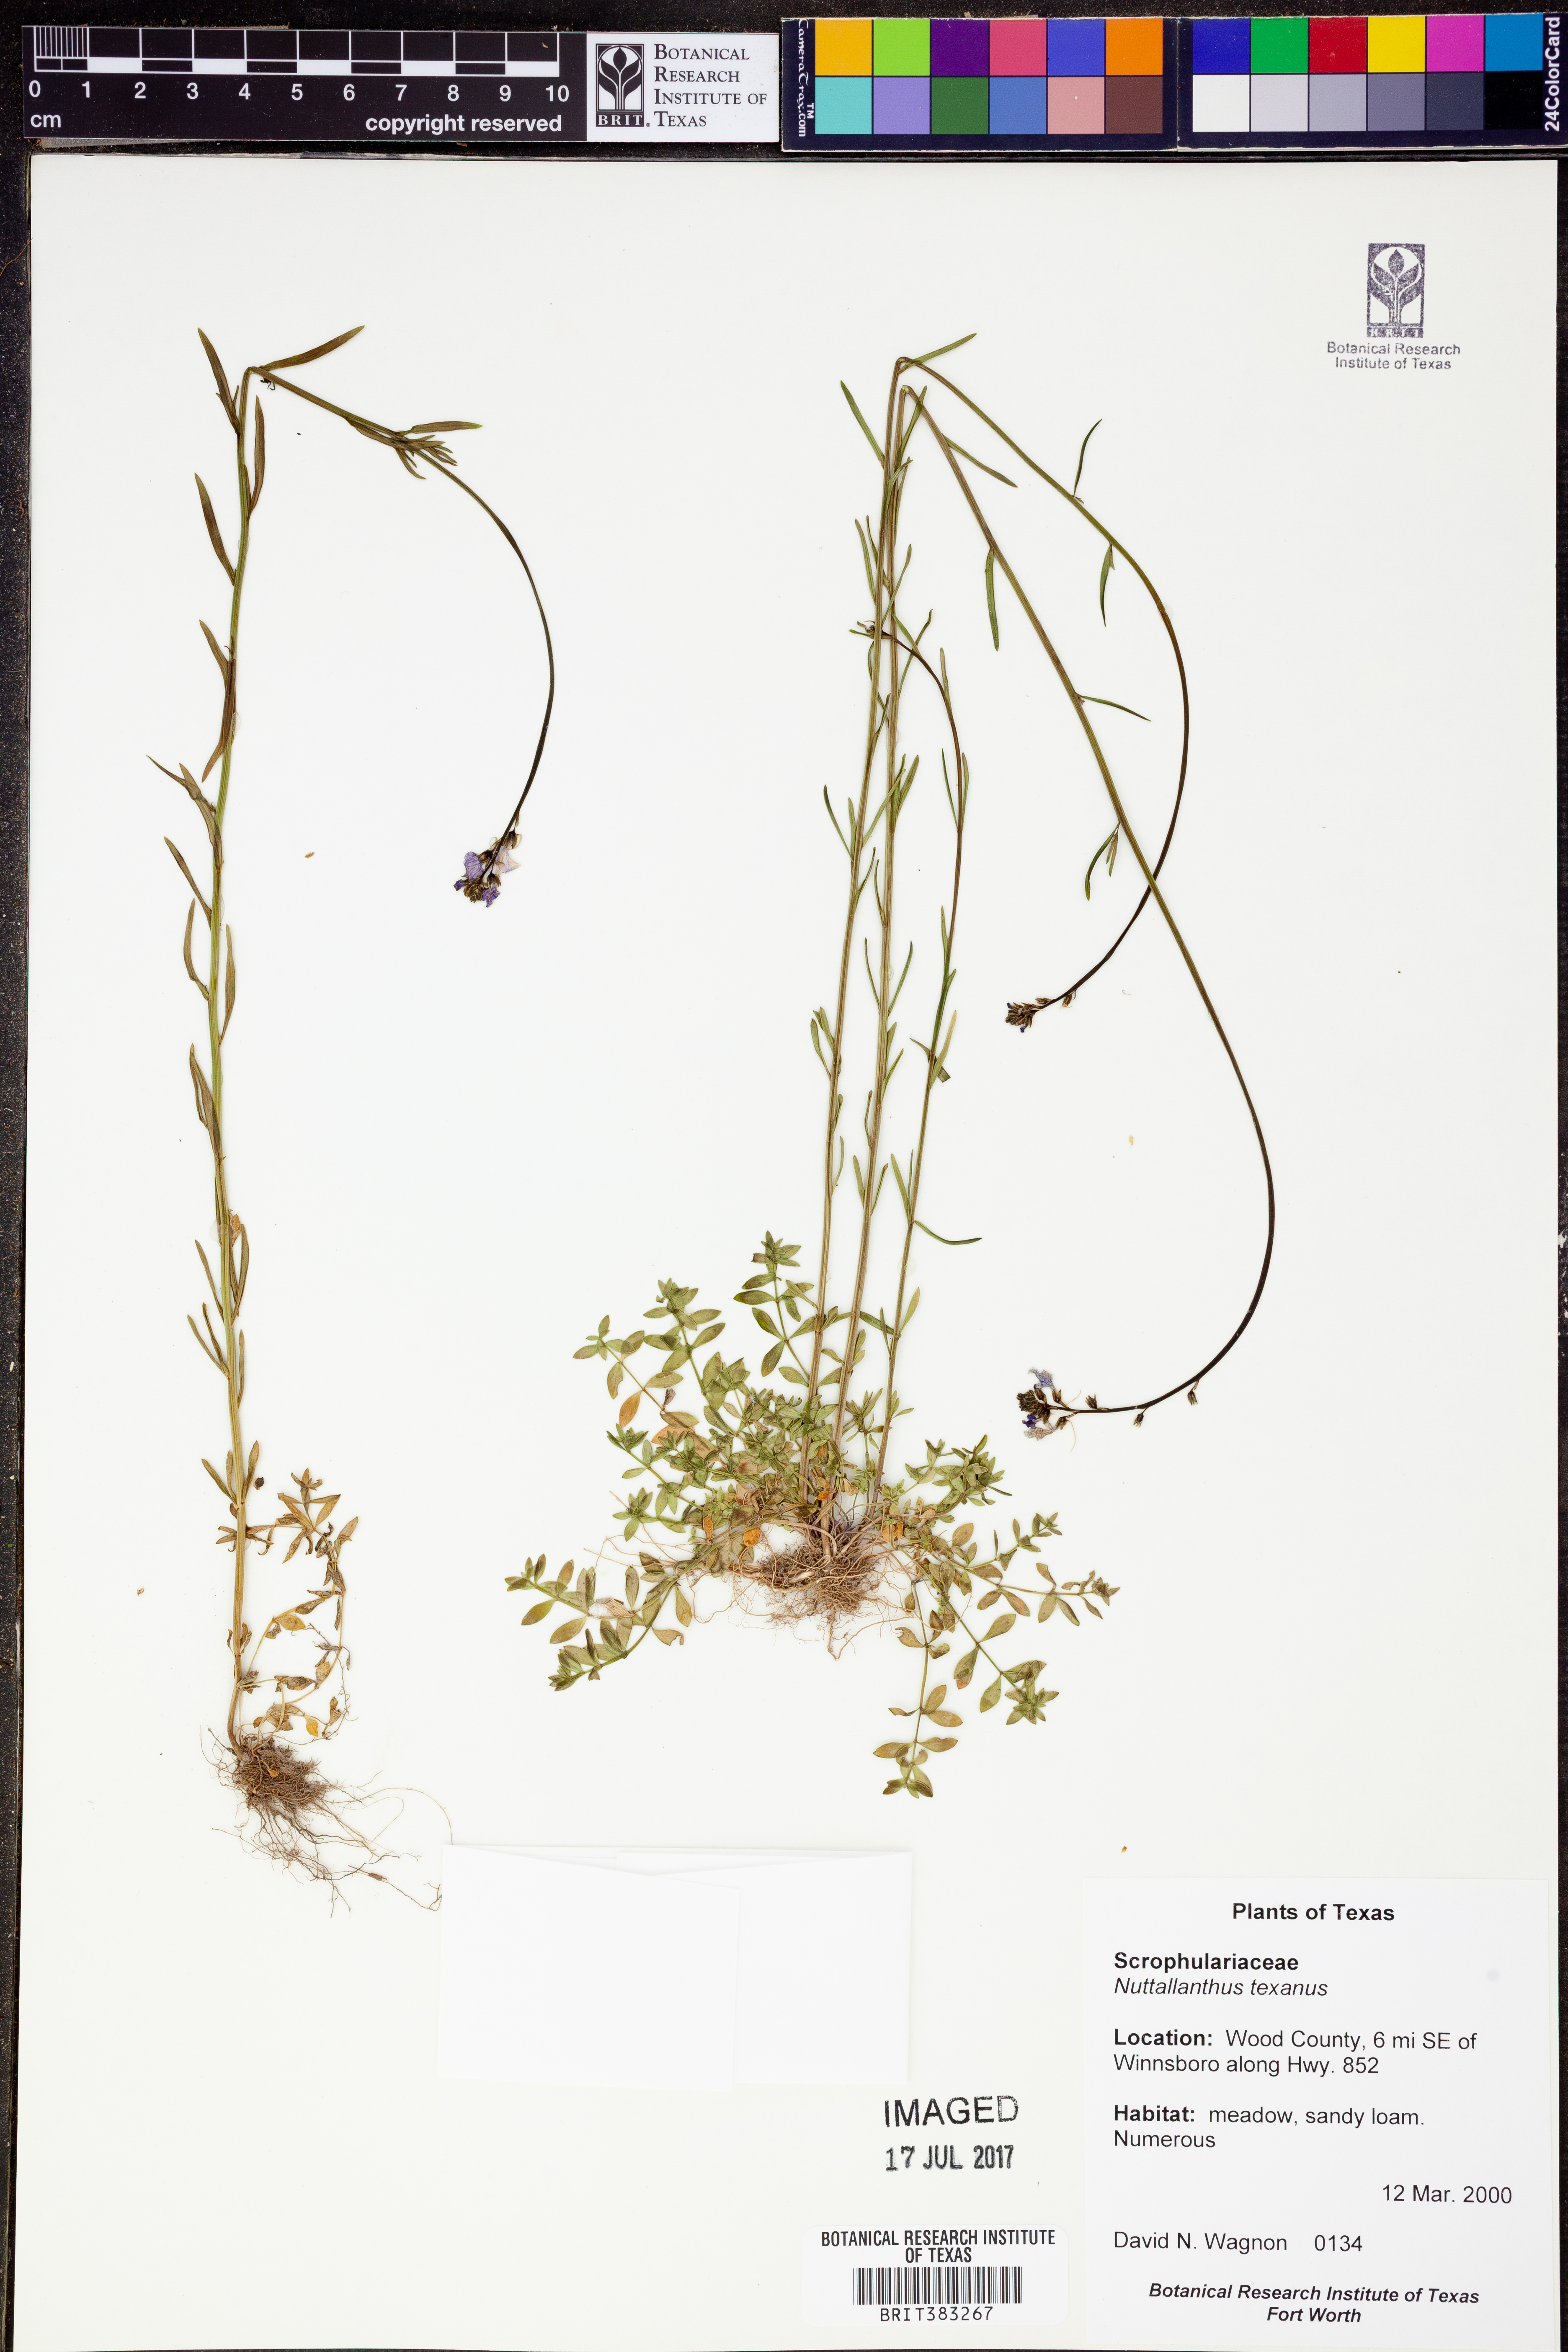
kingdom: Plantae
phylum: Tracheophyta
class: Magnoliopsida
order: Lamiales
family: Plantaginaceae
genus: Nuttallanthus
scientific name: Nuttallanthus texanus
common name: Texas toadflax
